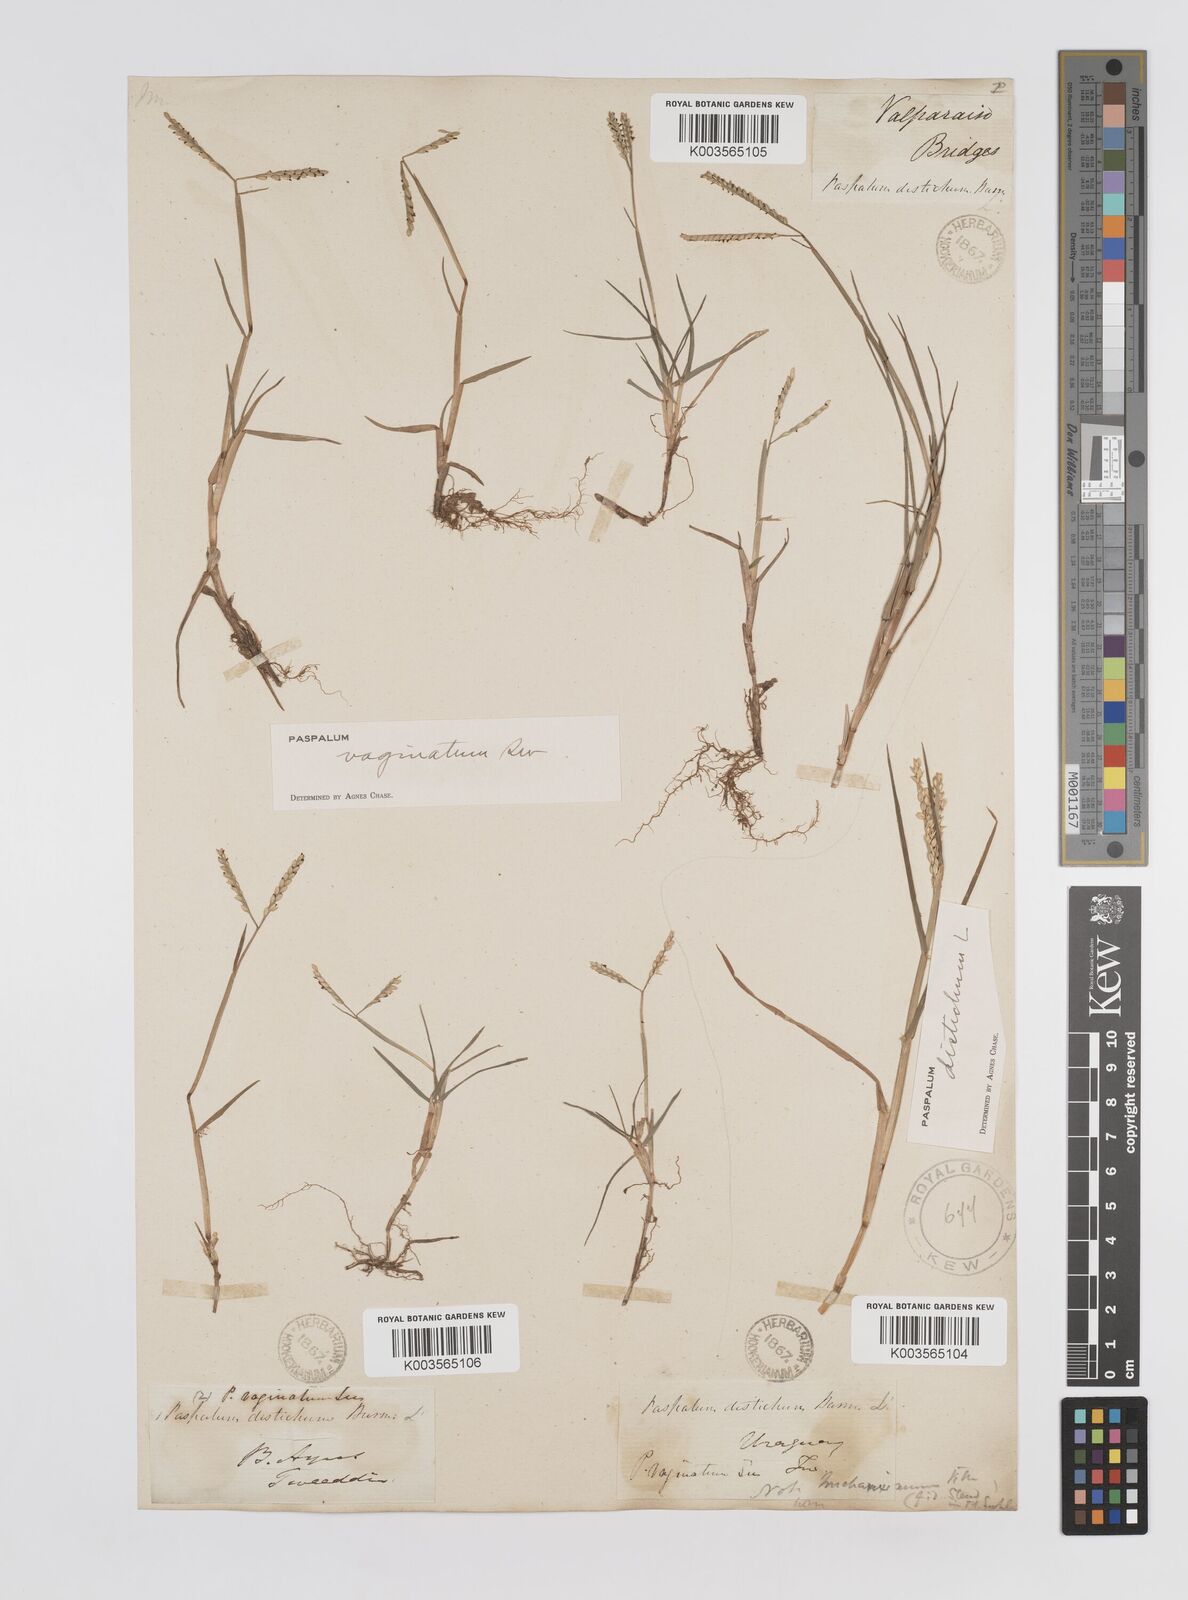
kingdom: Plantae
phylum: Tracheophyta
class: Liliopsida
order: Poales
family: Poaceae
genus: Paspalum
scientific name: Paspalum vaginatum
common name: Seashore paspalum
